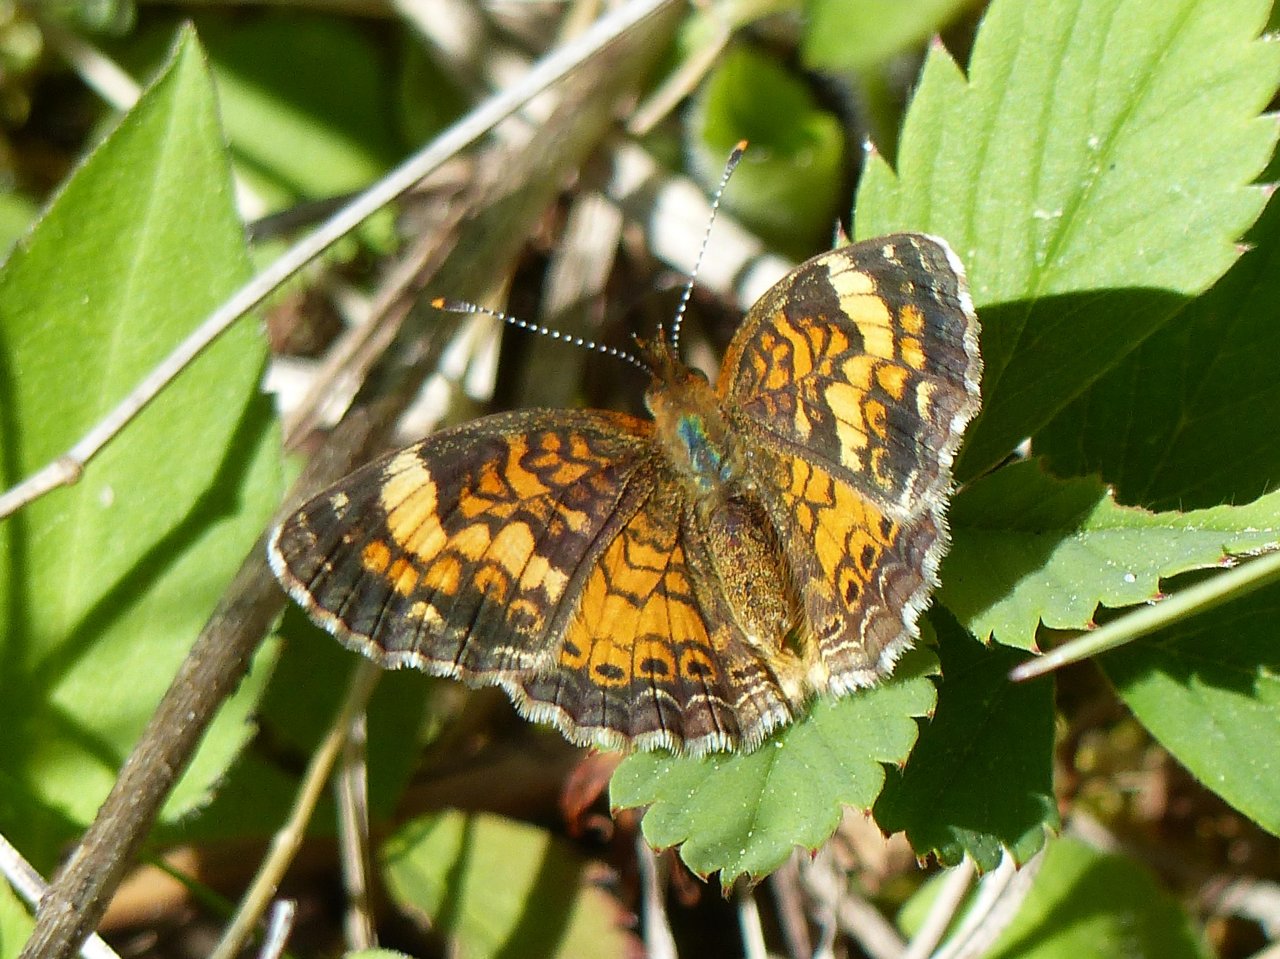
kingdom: Animalia
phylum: Arthropoda
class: Insecta
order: Lepidoptera
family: Nymphalidae
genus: Phyciodes
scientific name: Phyciodes tharos
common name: Northern Crescent
